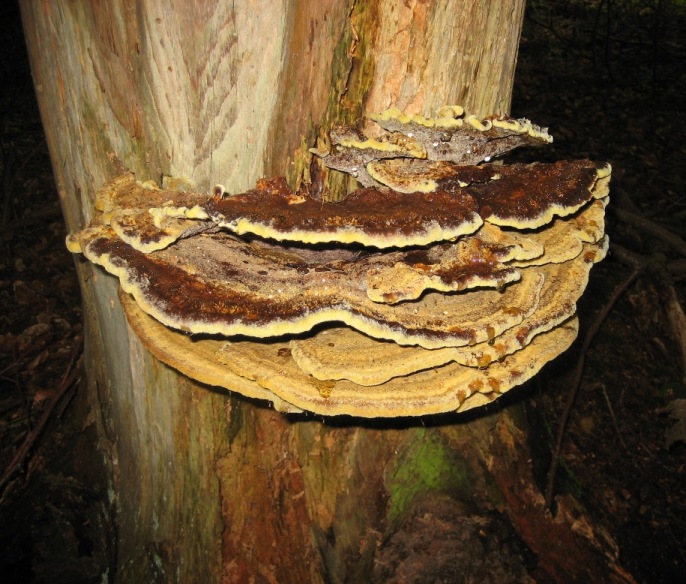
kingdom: Fungi
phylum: Basidiomycota
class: Agaricomycetes
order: Polyporales
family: Laetiporaceae
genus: Phaeolus
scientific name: Phaeolus schweinitzii
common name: brunporesvamp
